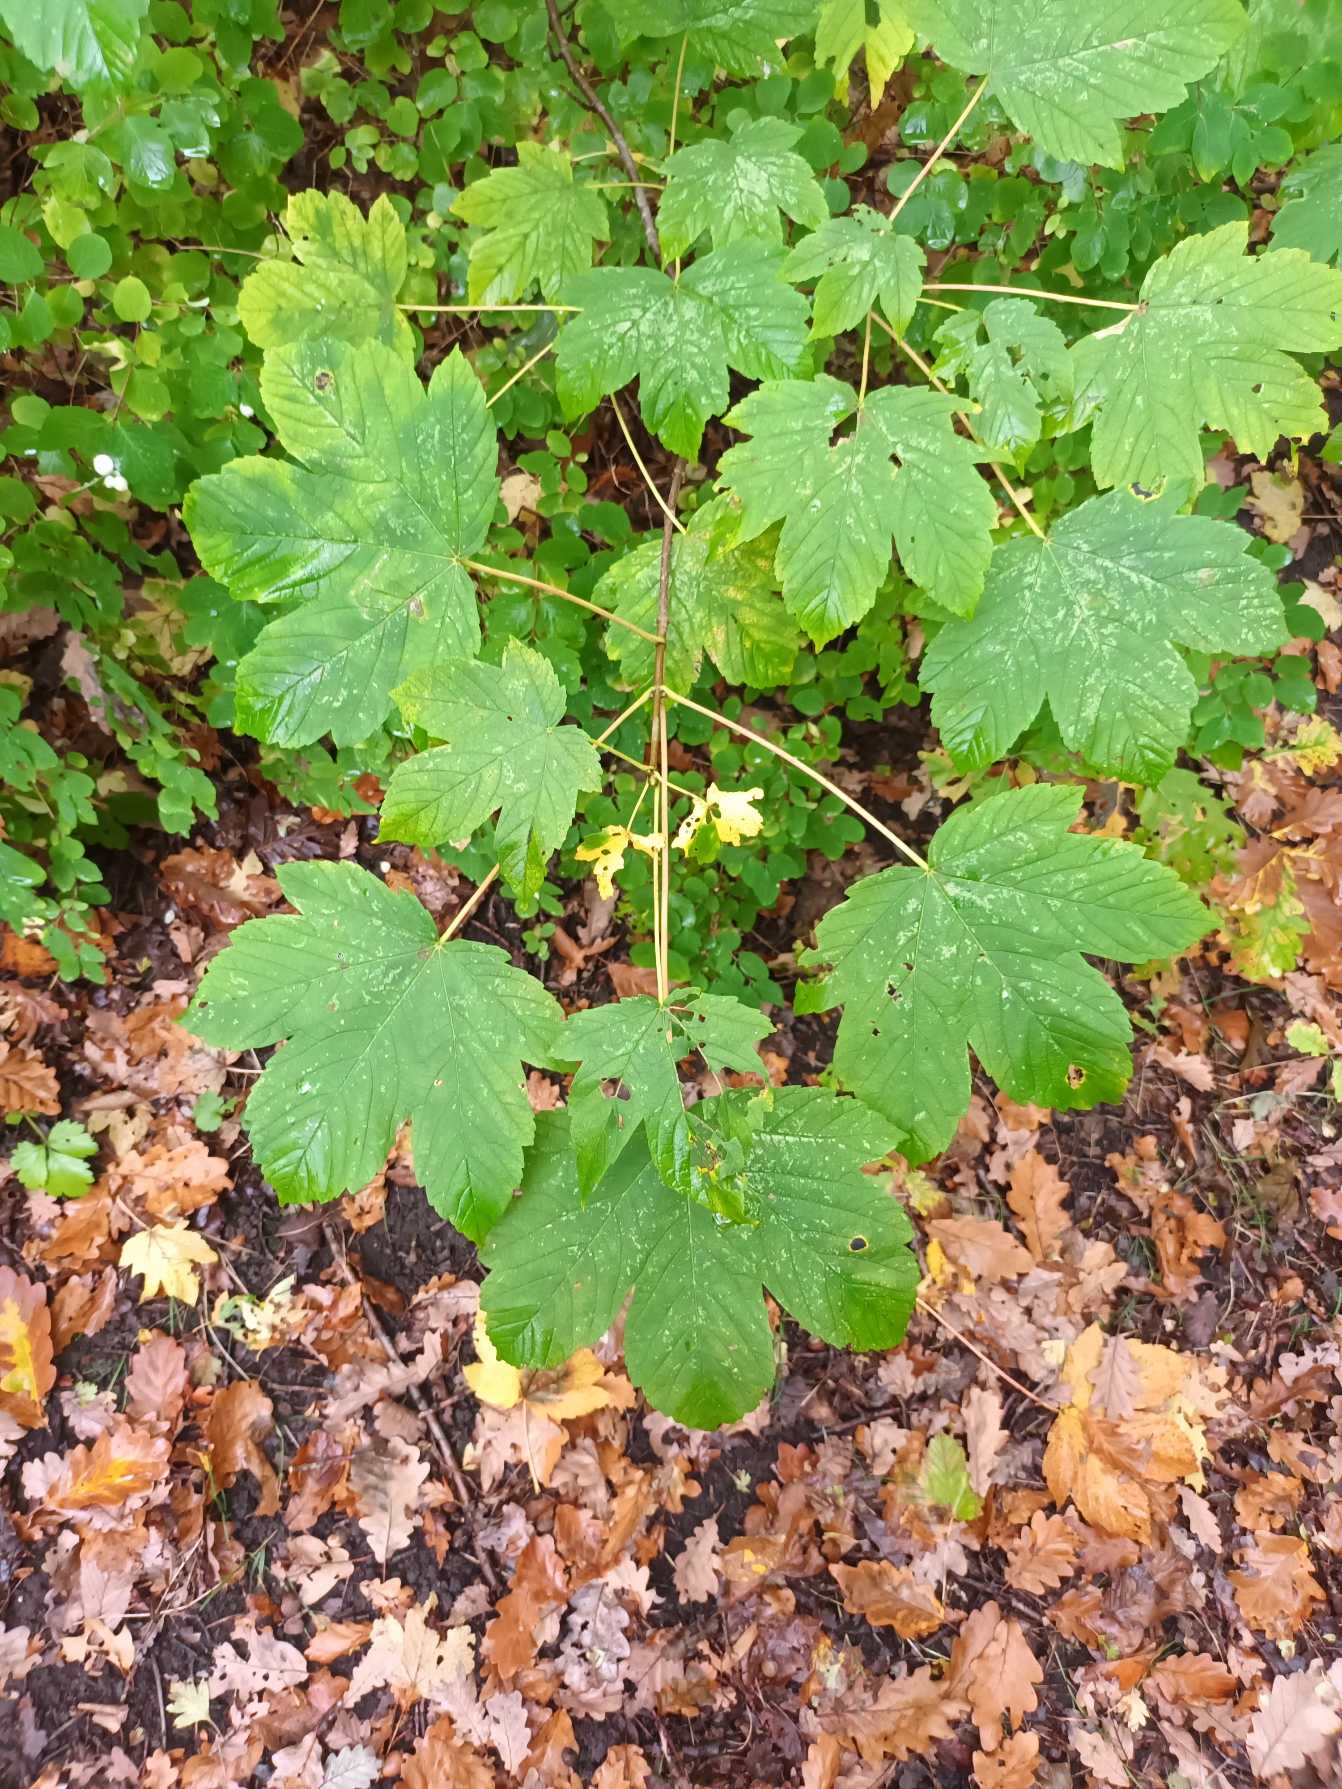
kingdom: Plantae
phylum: Tracheophyta
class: Magnoliopsida
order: Sapindales
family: Sapindaceae
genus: Acer
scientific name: Acer pseudoplatanus
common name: Ahorn
